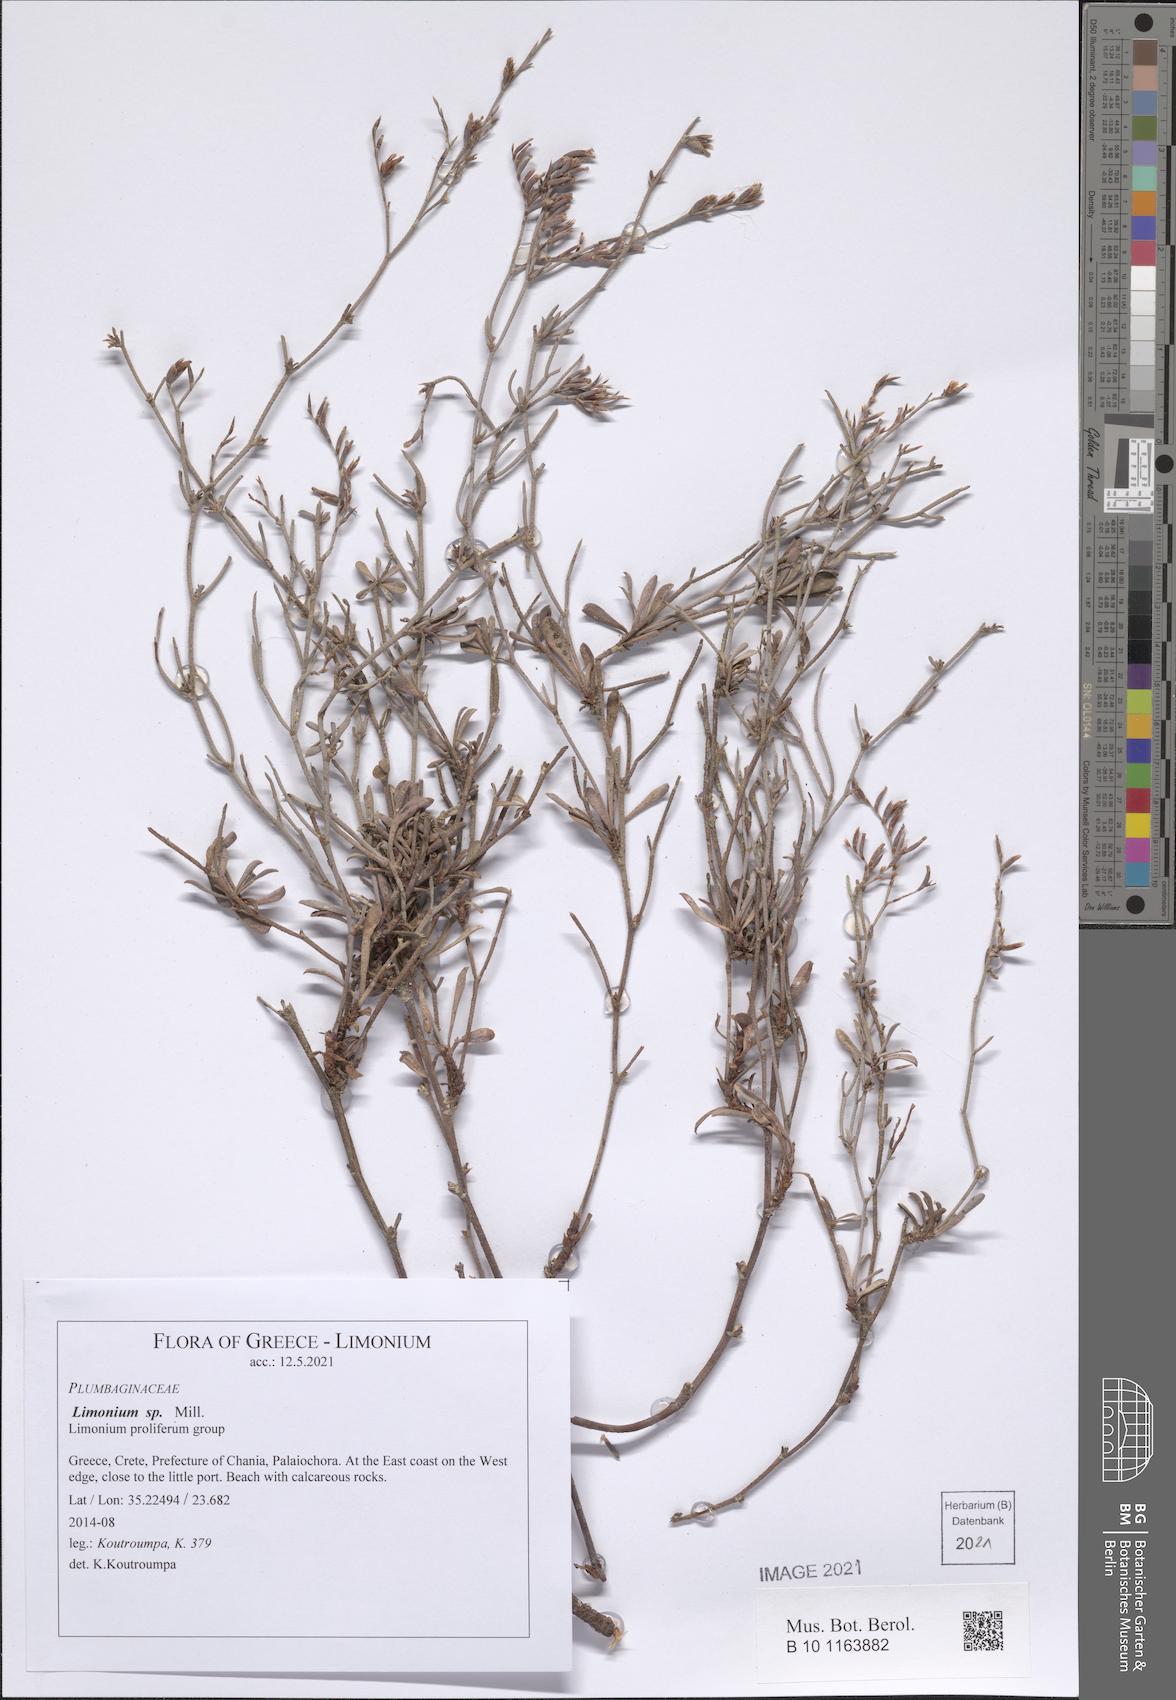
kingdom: Plantae
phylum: Tracheophyta
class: Magnoliopsida
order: Caryophyllales
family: Plumbaginaceae
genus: Limonium
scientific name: Limonium
